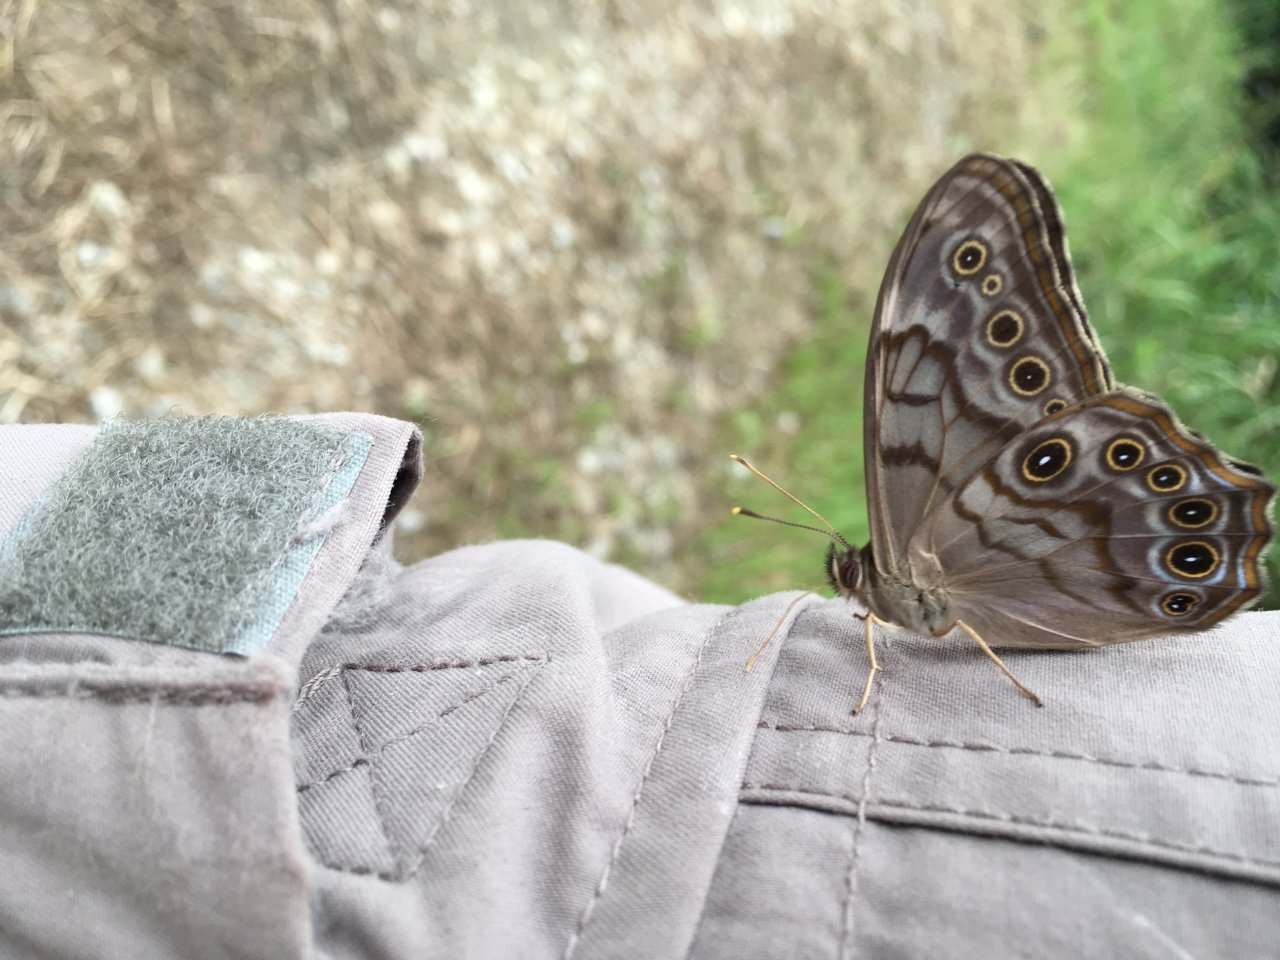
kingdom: Animalia
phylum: Arthropoda
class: Insecta
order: Lepidoptera
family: Nymphalidae
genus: Lethe
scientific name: Lethe creola
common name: Creole Pearly-Eye
